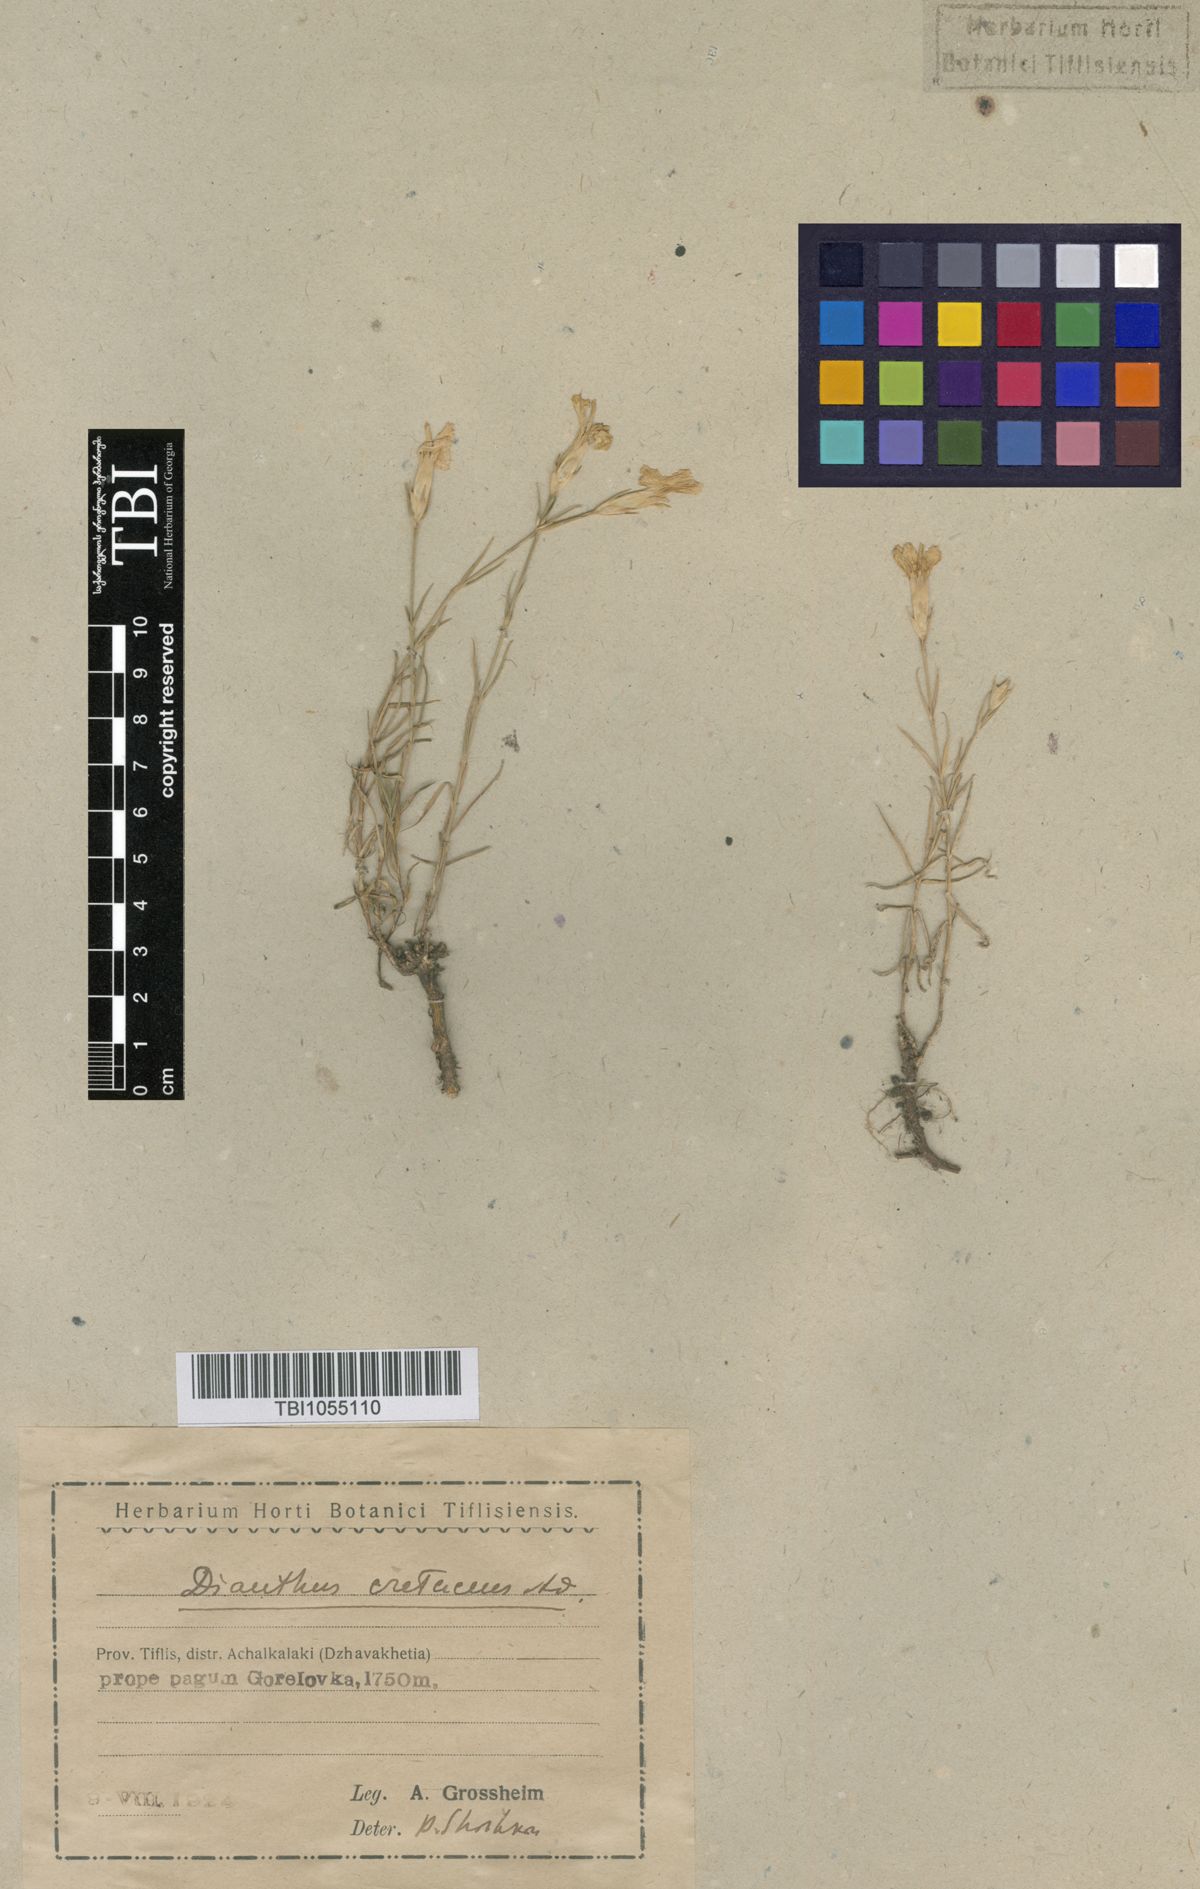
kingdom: Plantae
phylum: Tracheophyta
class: Magnoliopsida
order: Caryophyllales
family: Caryophyllaceae
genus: Dianthus
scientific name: Dianthus cretaceus
